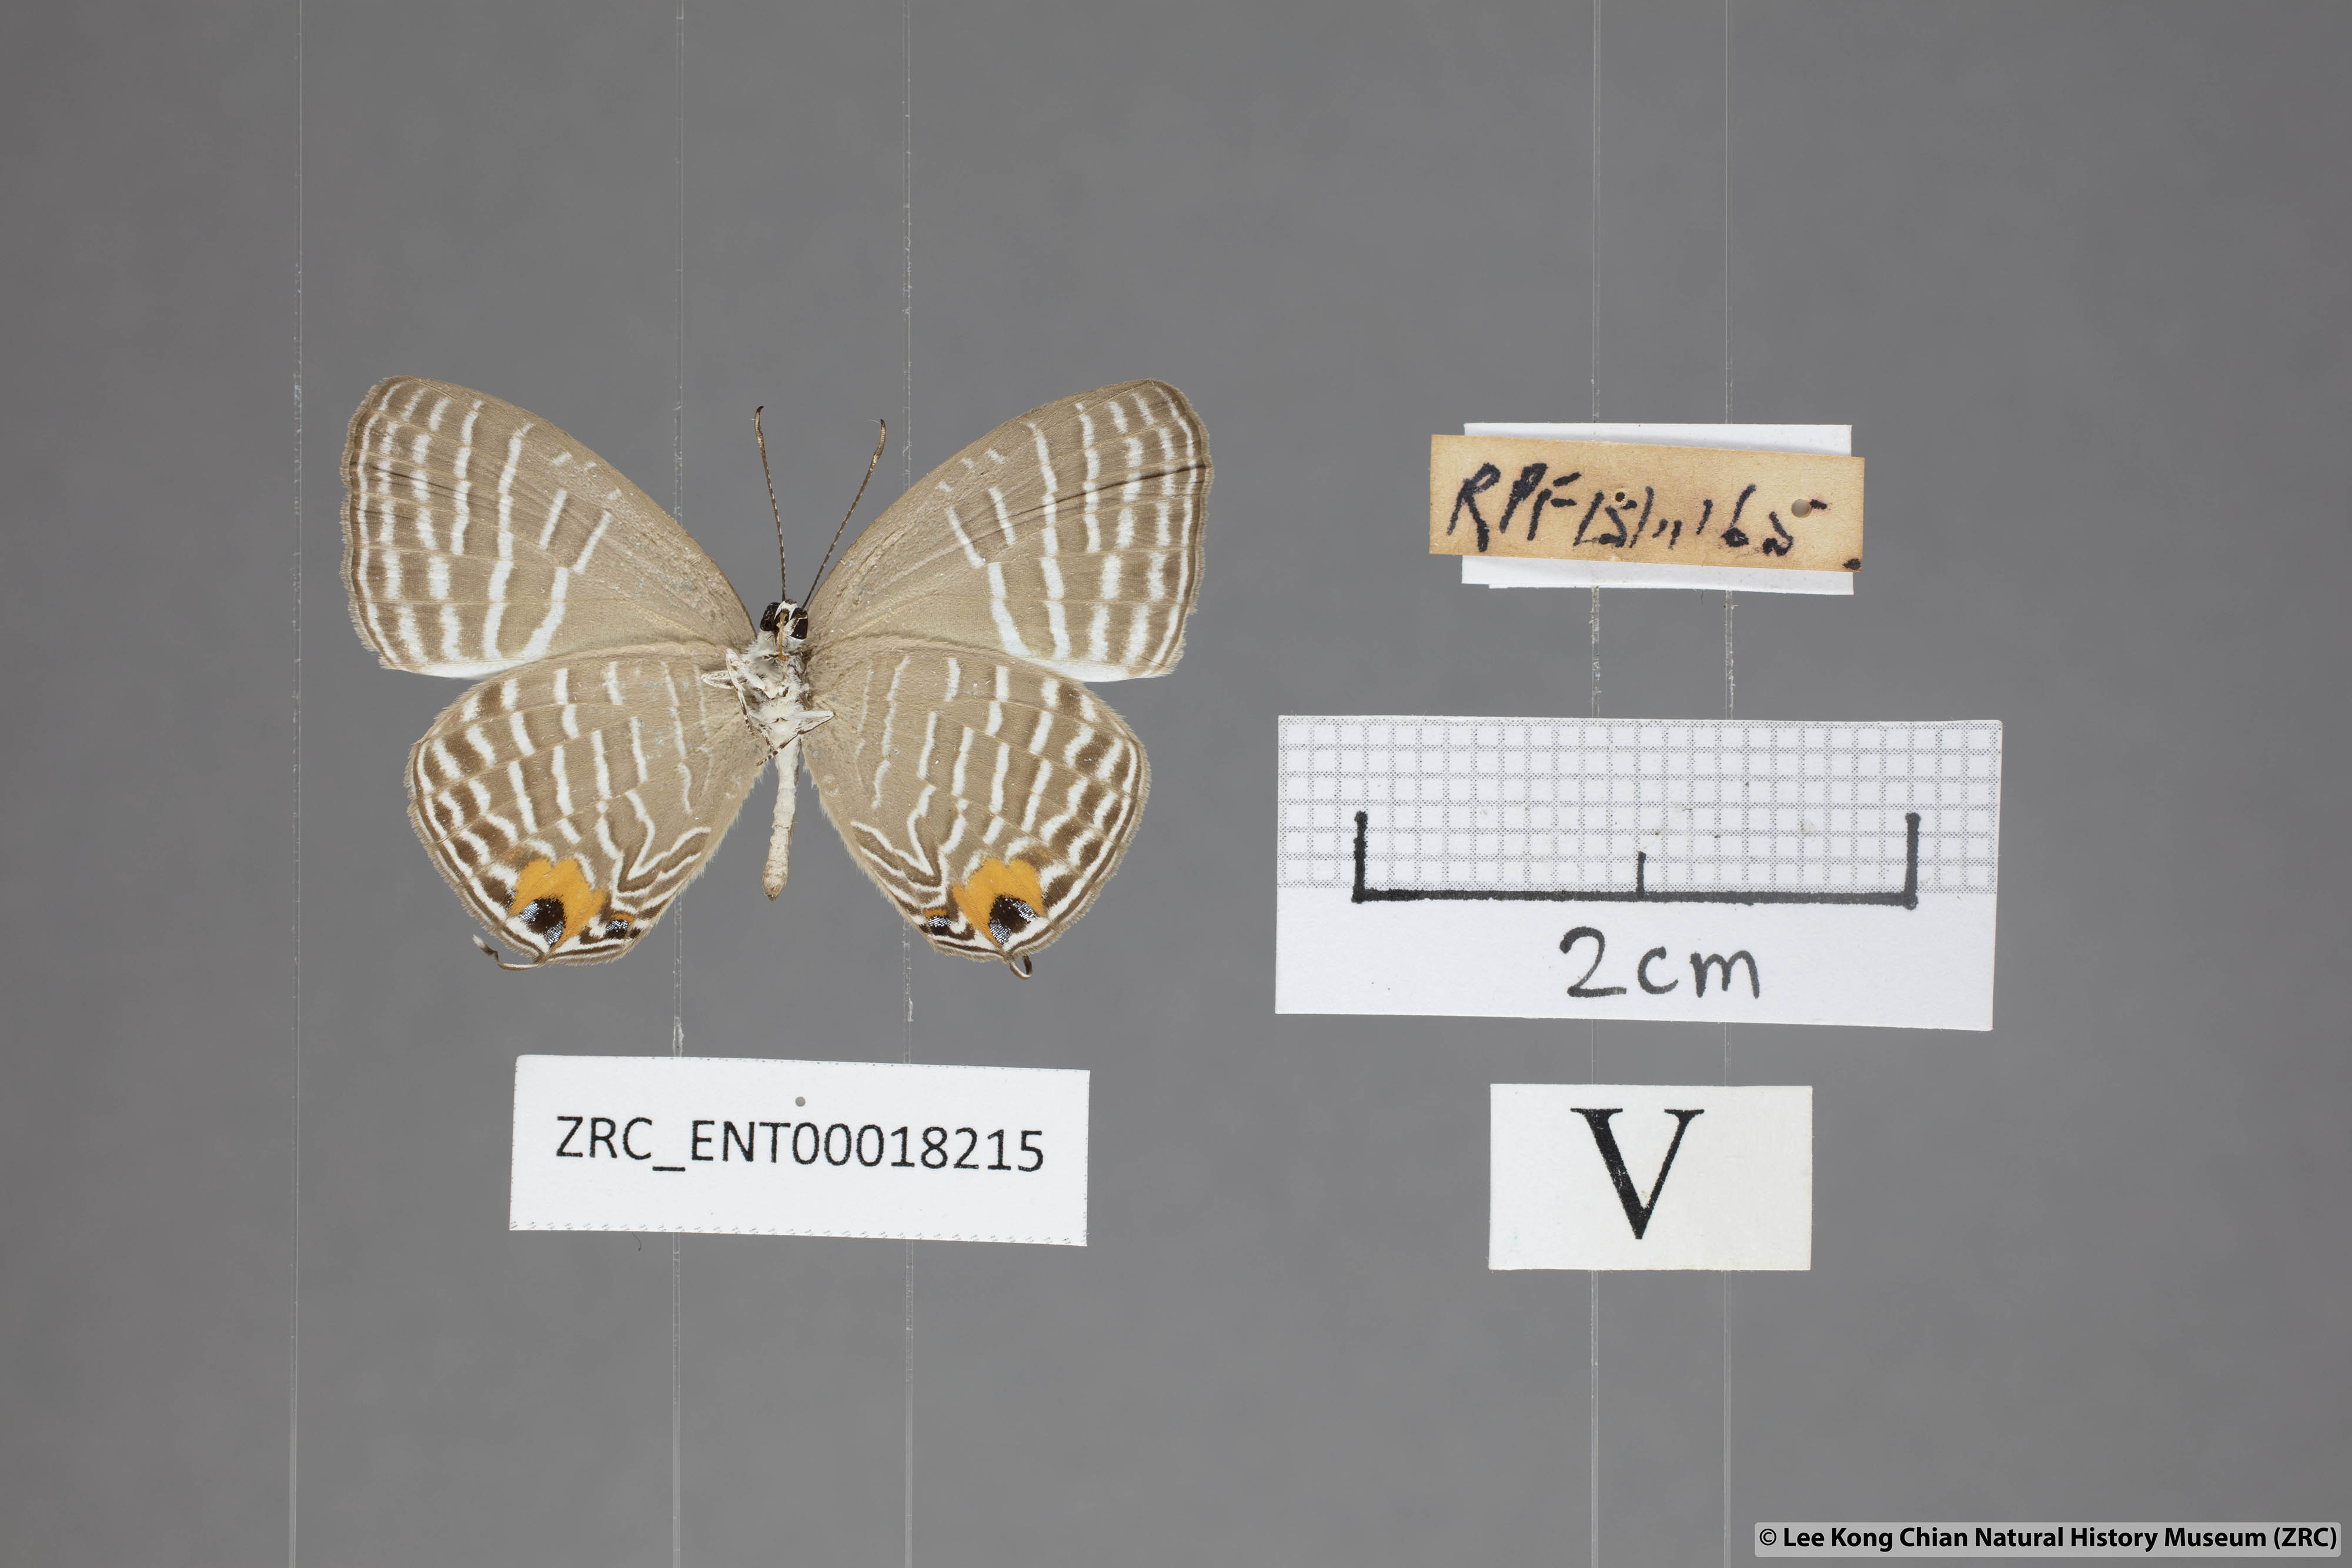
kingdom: Animalia
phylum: Arthropoda
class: Insecta
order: Lepidoptera
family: Lycaenidae
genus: Jamides
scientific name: Jamides zebra
